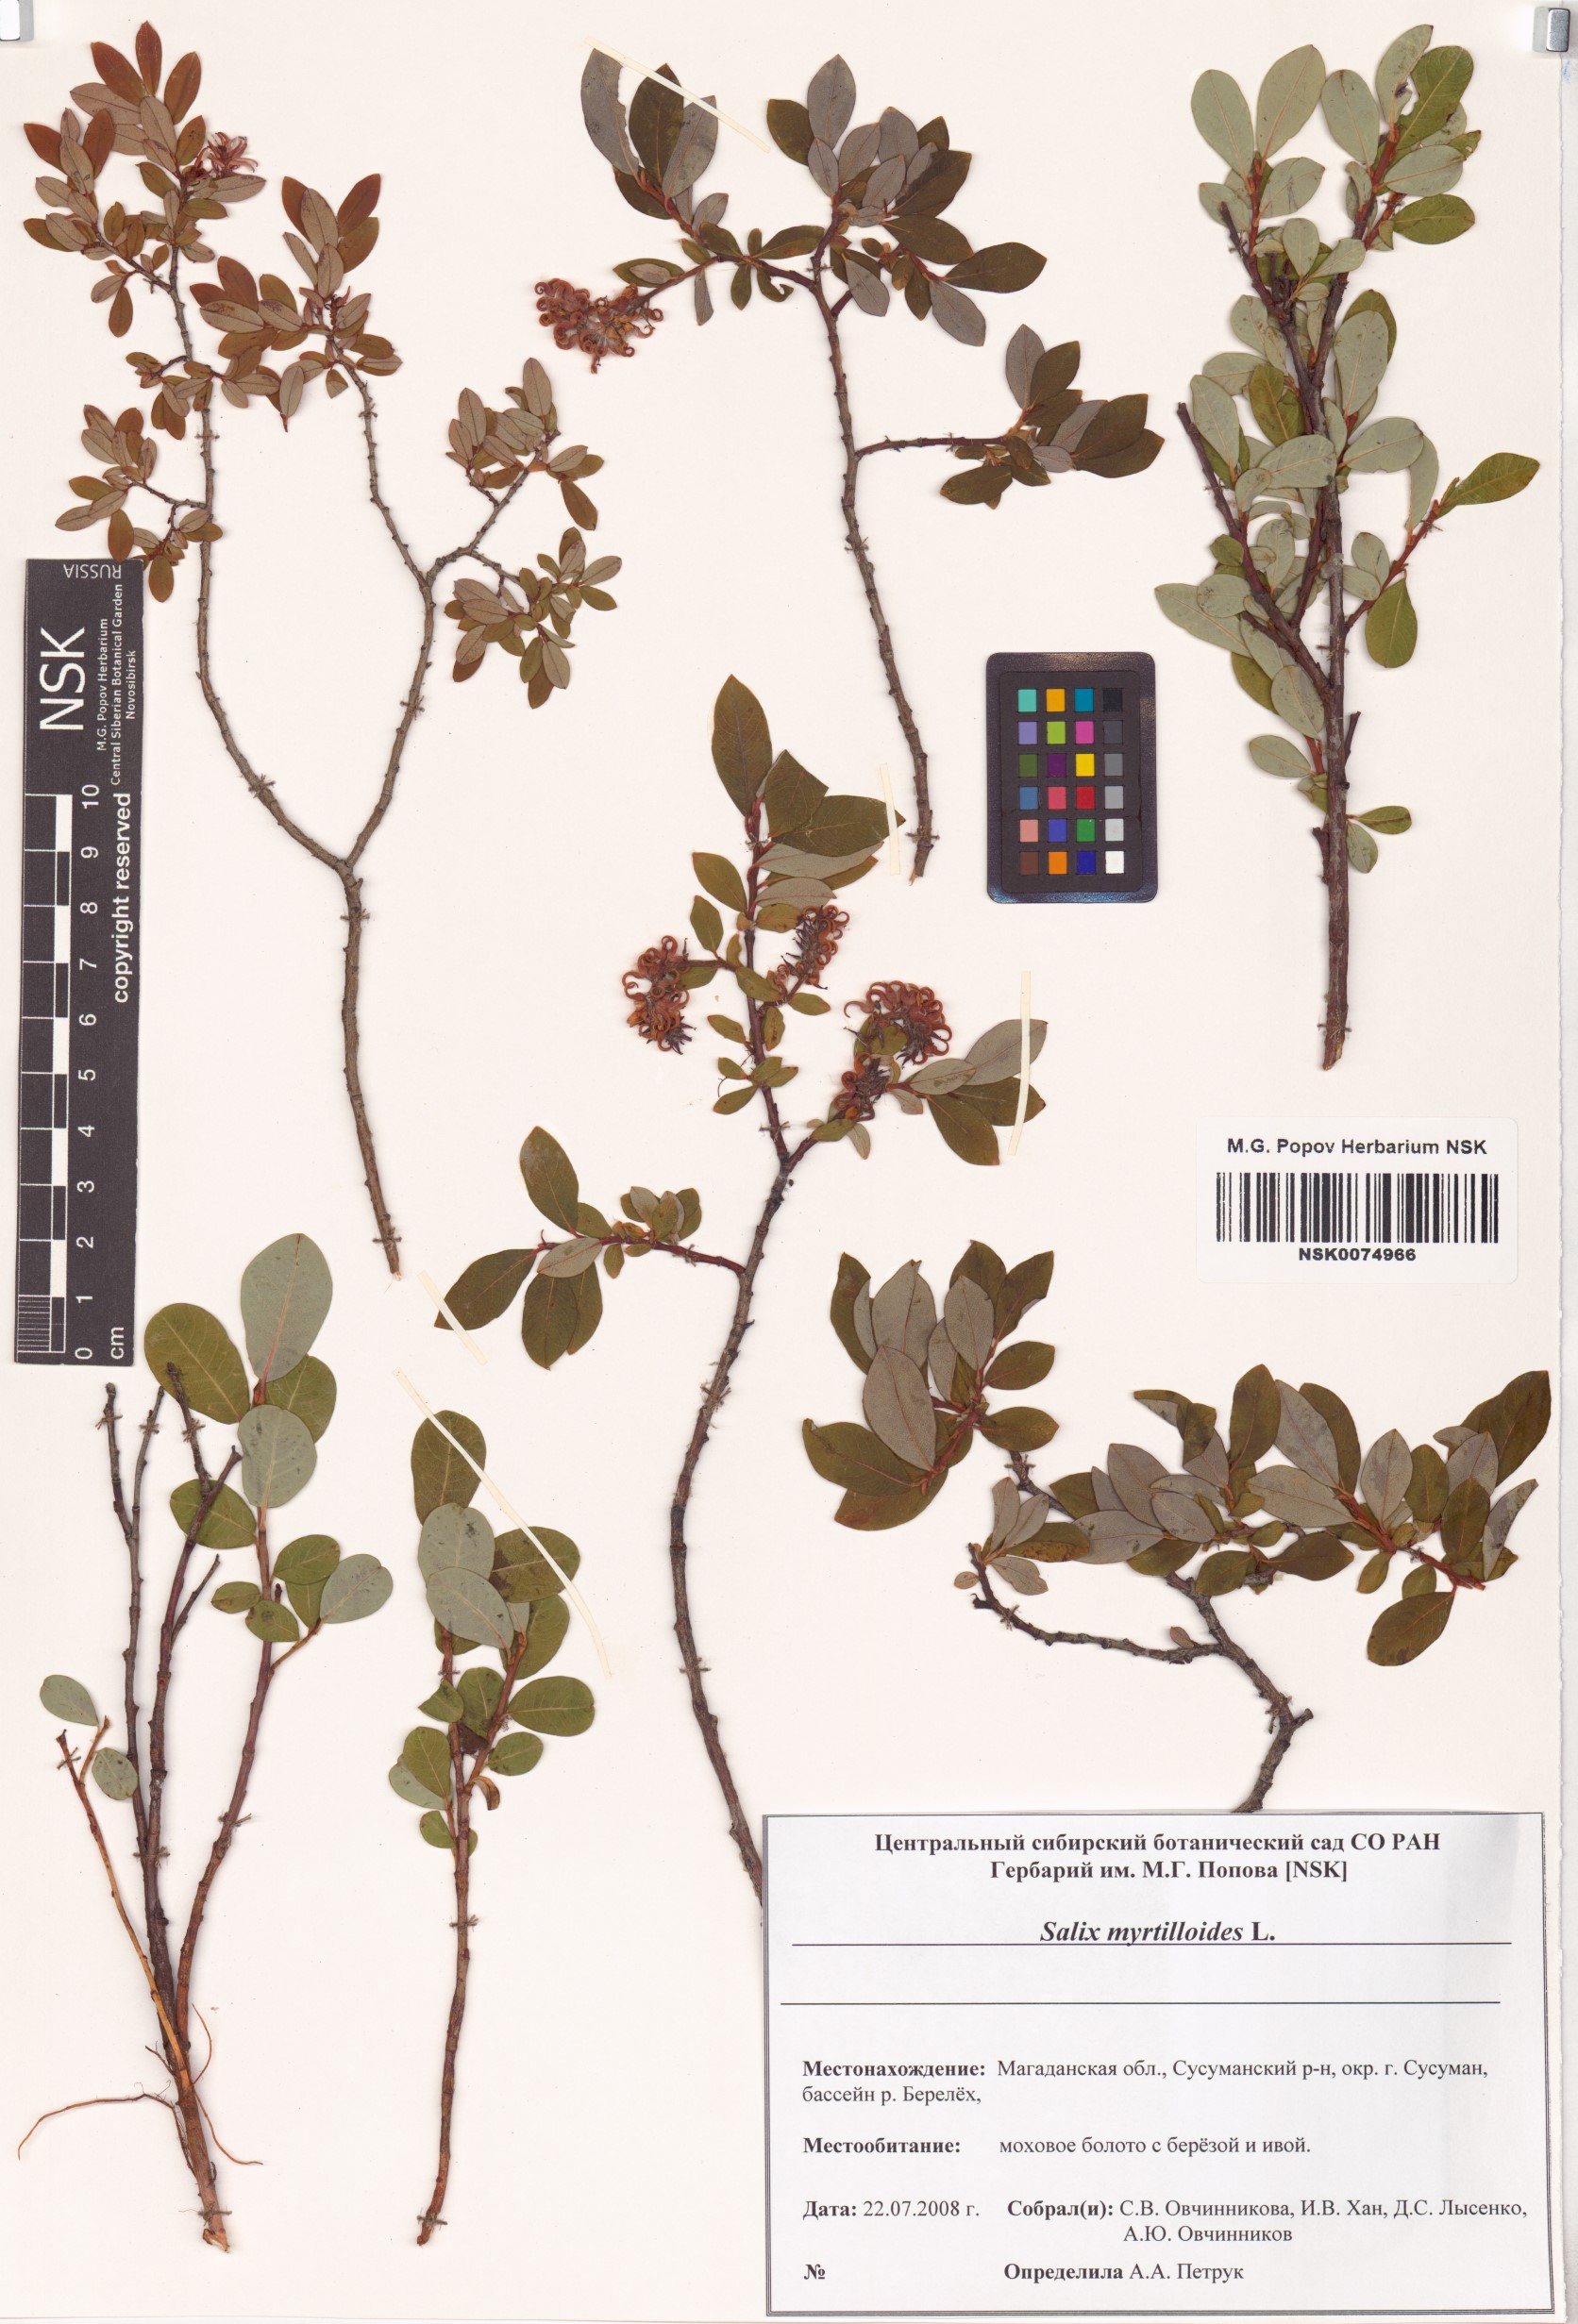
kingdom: Plantae
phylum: Tracheophyta
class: Magnoliopsida
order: Malpighiales
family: Salicaceae
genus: Salix
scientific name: Salix myrtilloides
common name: Myrtle-leaved willow
